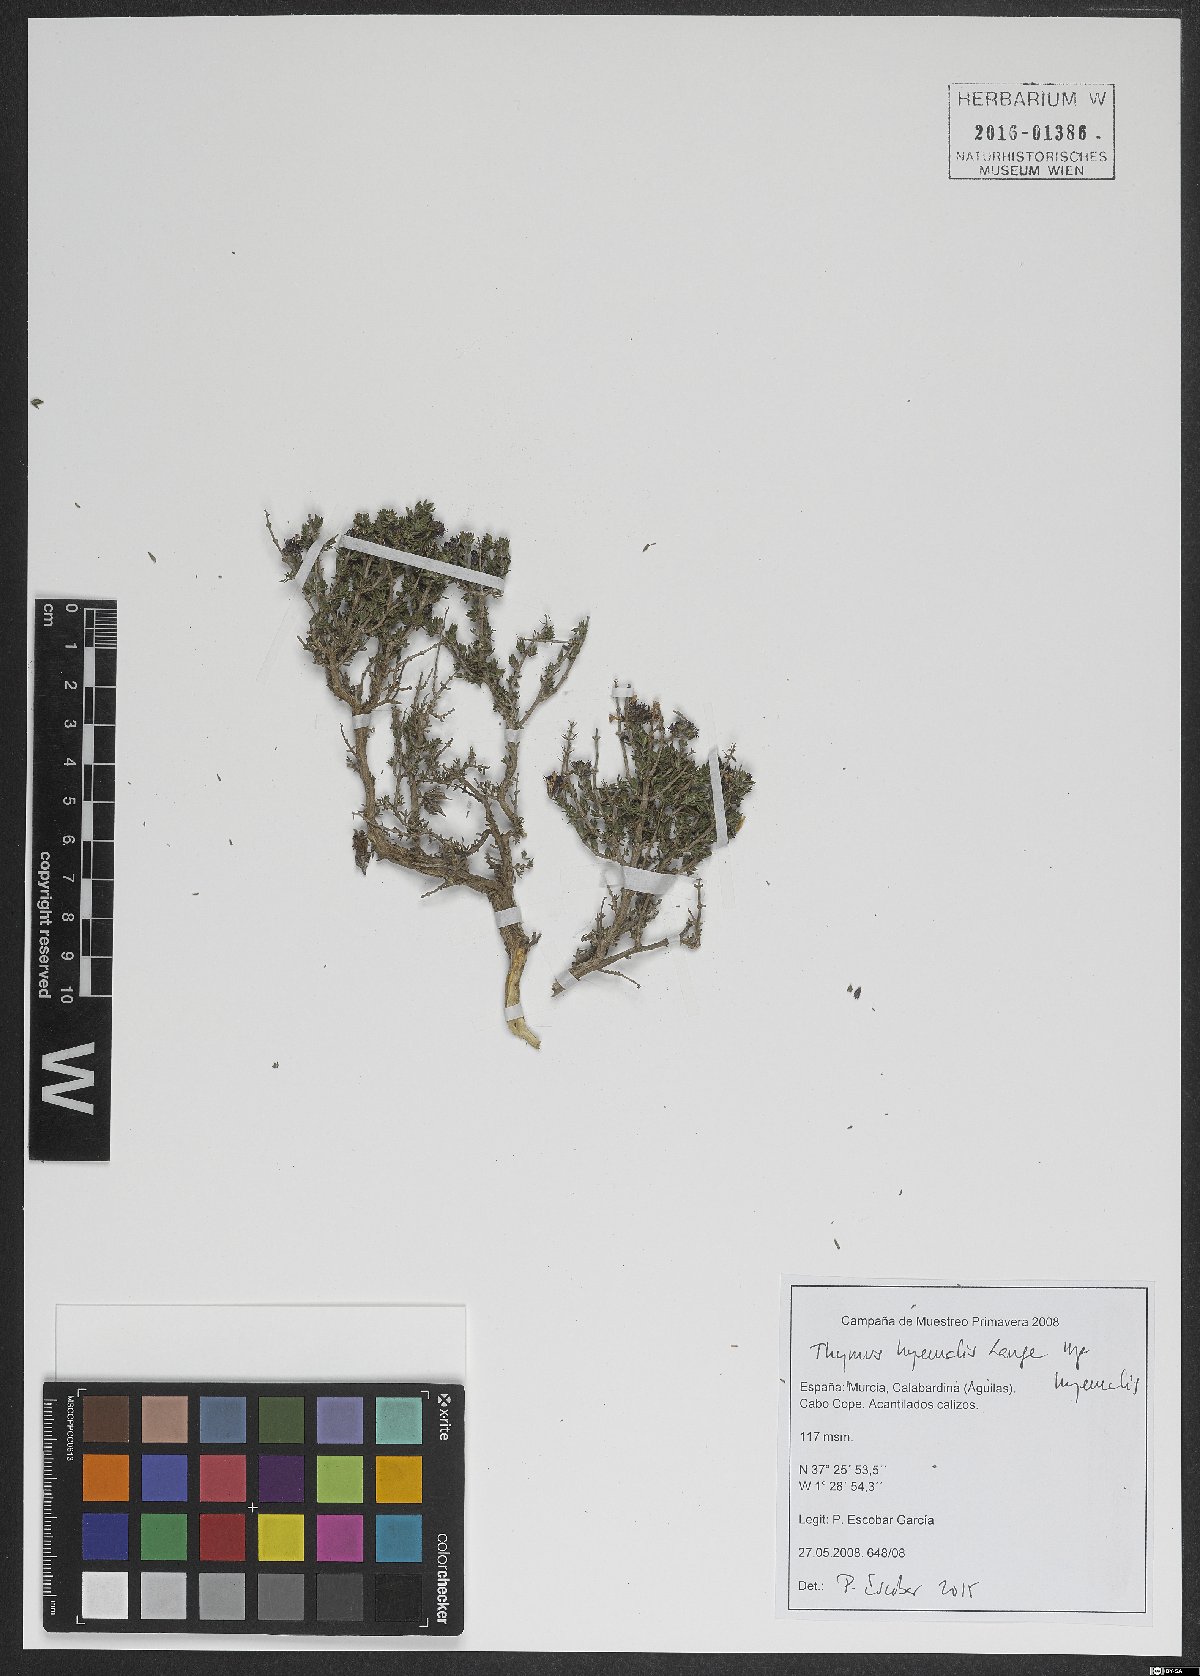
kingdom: Plantae
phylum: Tracheophyta
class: Magnoliopsida
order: Lamiales
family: Lamiaceae
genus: Thymus
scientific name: Thymus hyemalis
